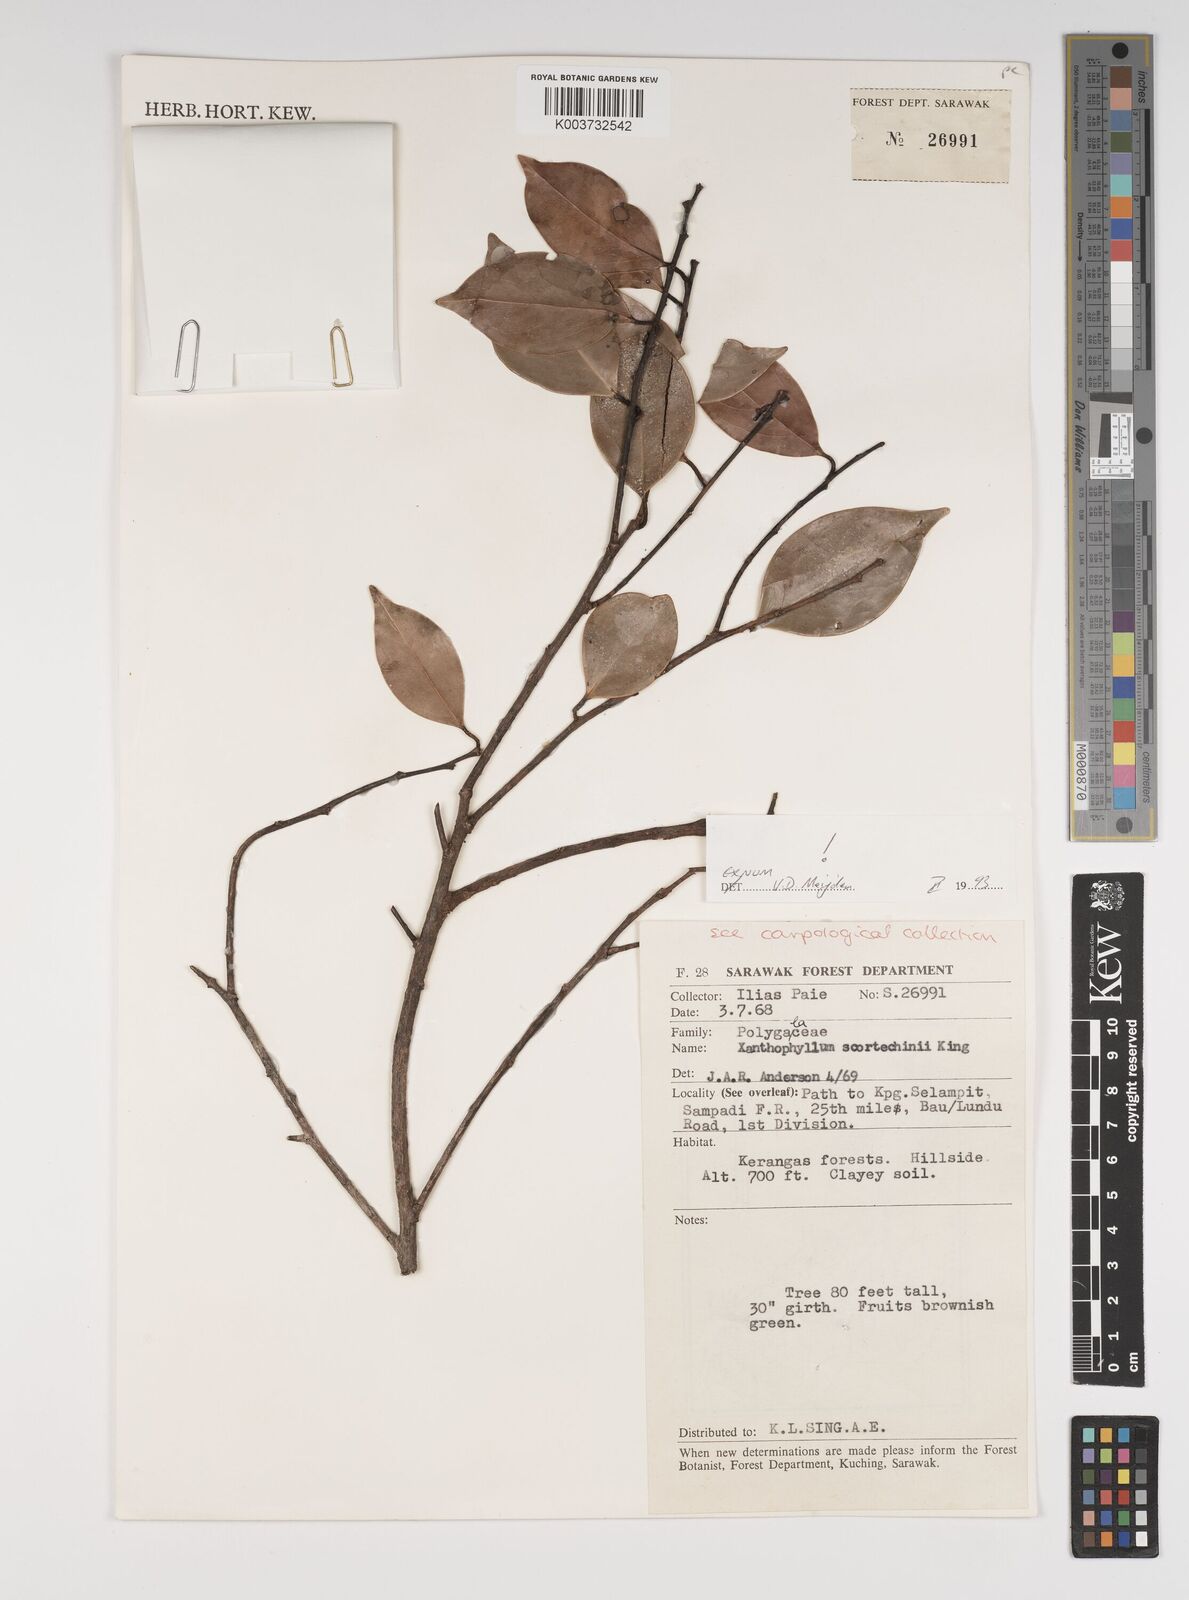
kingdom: Plantae
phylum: Tracheophyta
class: Magnoliopsida
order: Fabales
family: Polygalaceae
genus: Xanthophyllum
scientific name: Xanthophyllum obscurum
